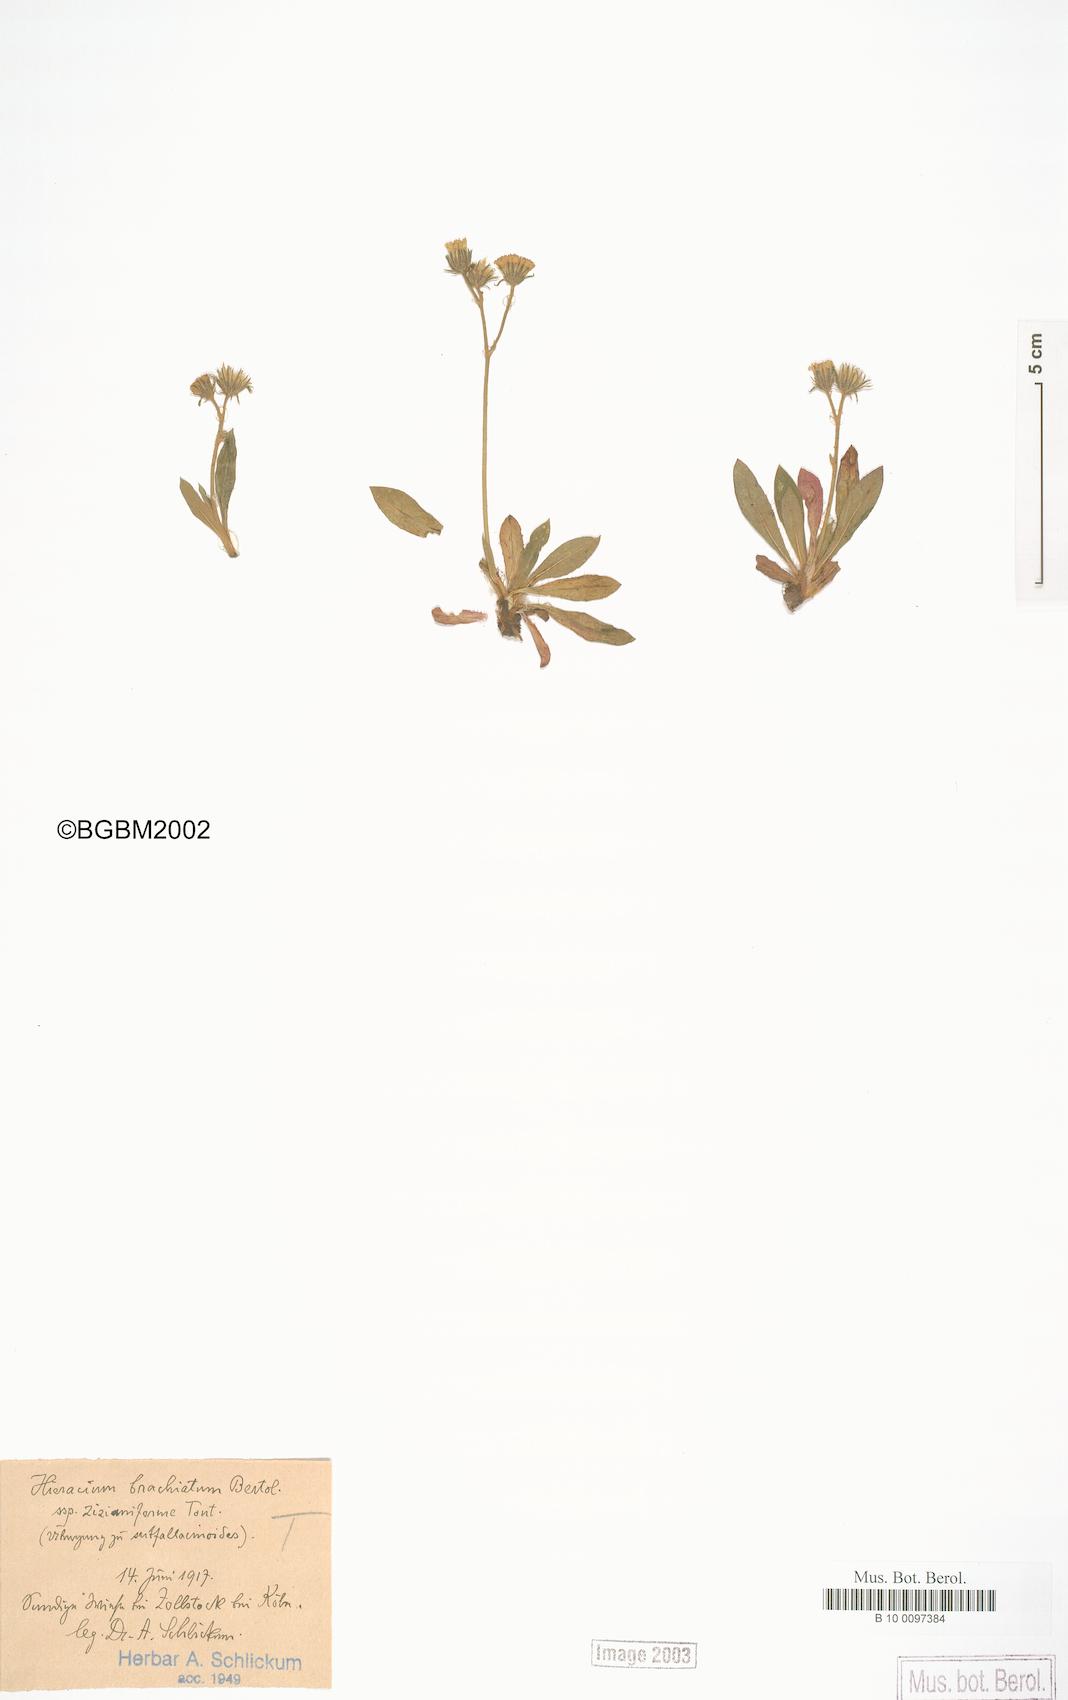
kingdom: Plantae
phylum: Tracheophyta
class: Magnoliopsida
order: Asterales
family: Asteraceae
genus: Pilosella
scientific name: Pilosella visianii
